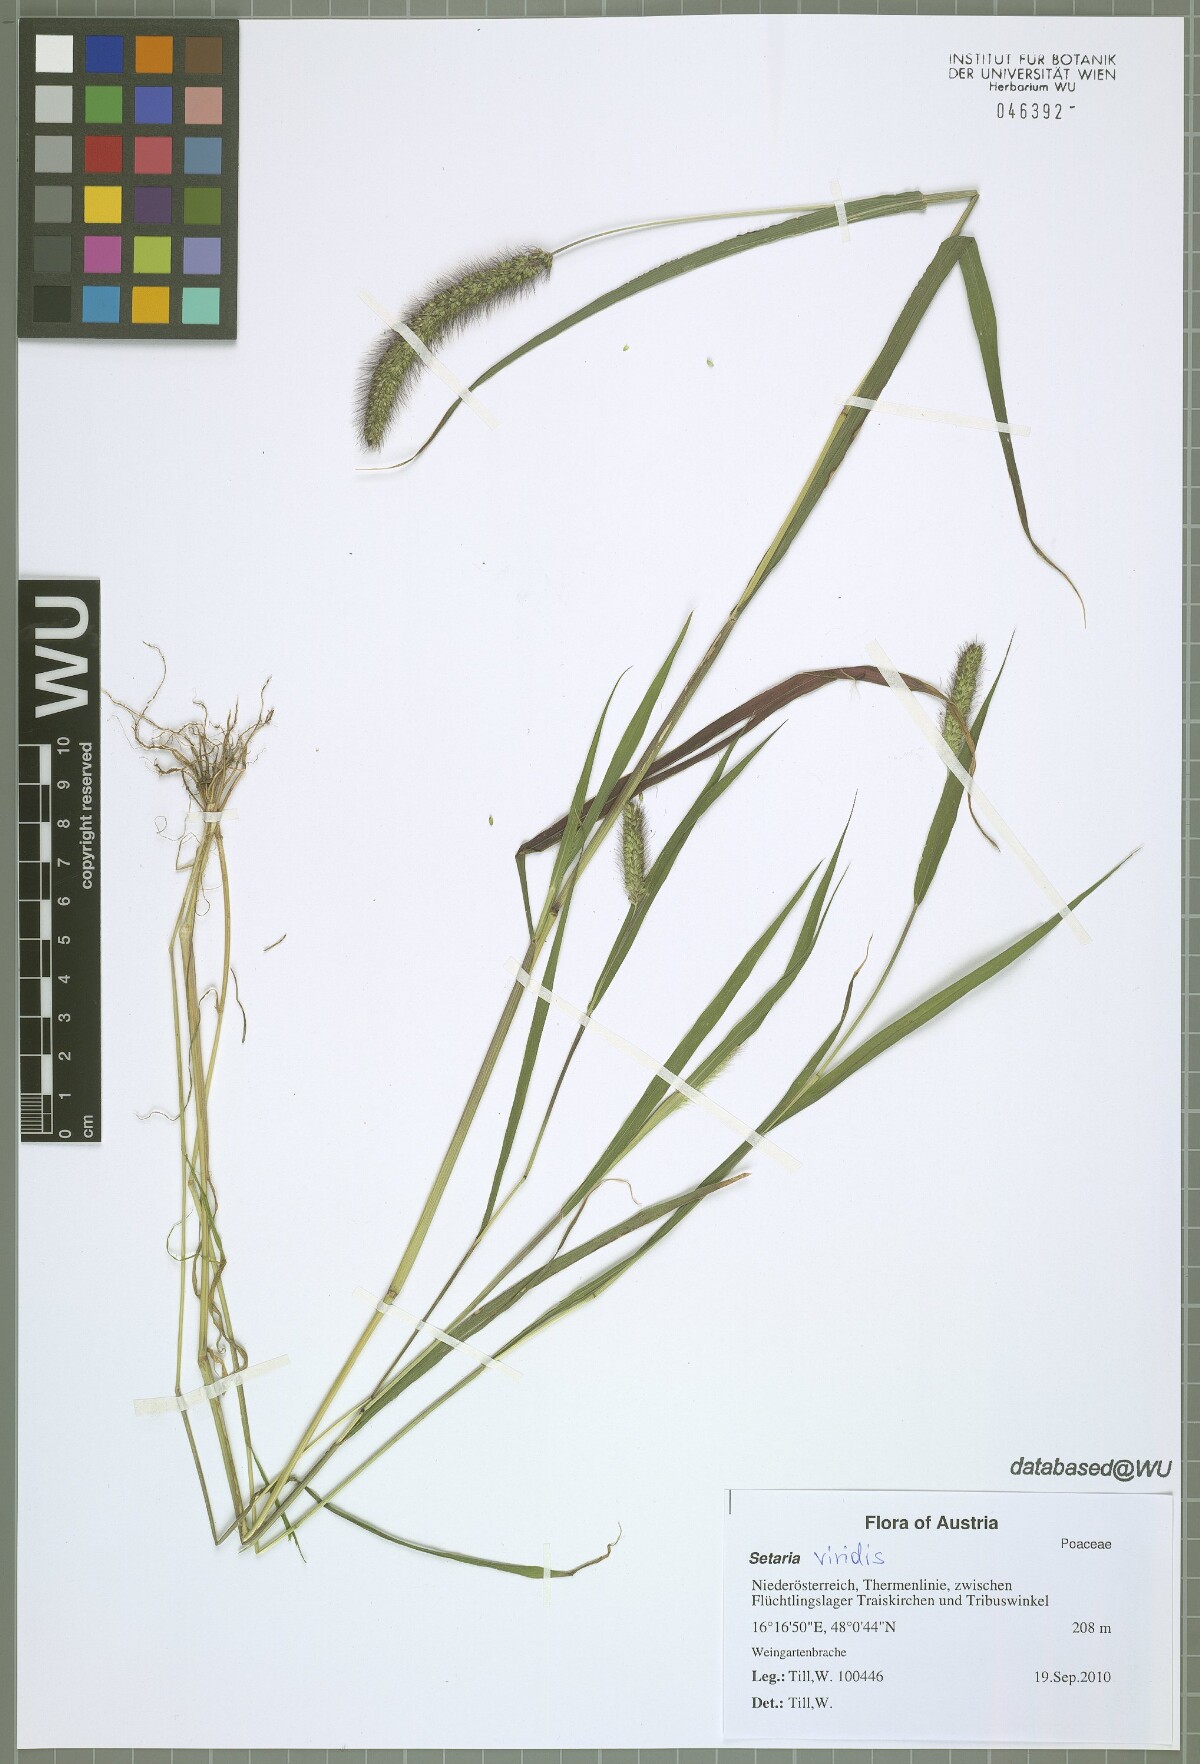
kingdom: Plantae
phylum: Tracheophyta
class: Liliopsida
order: Poales
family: Poaceae
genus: Setaria
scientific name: Setaria viridis
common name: Green bristlegrass
